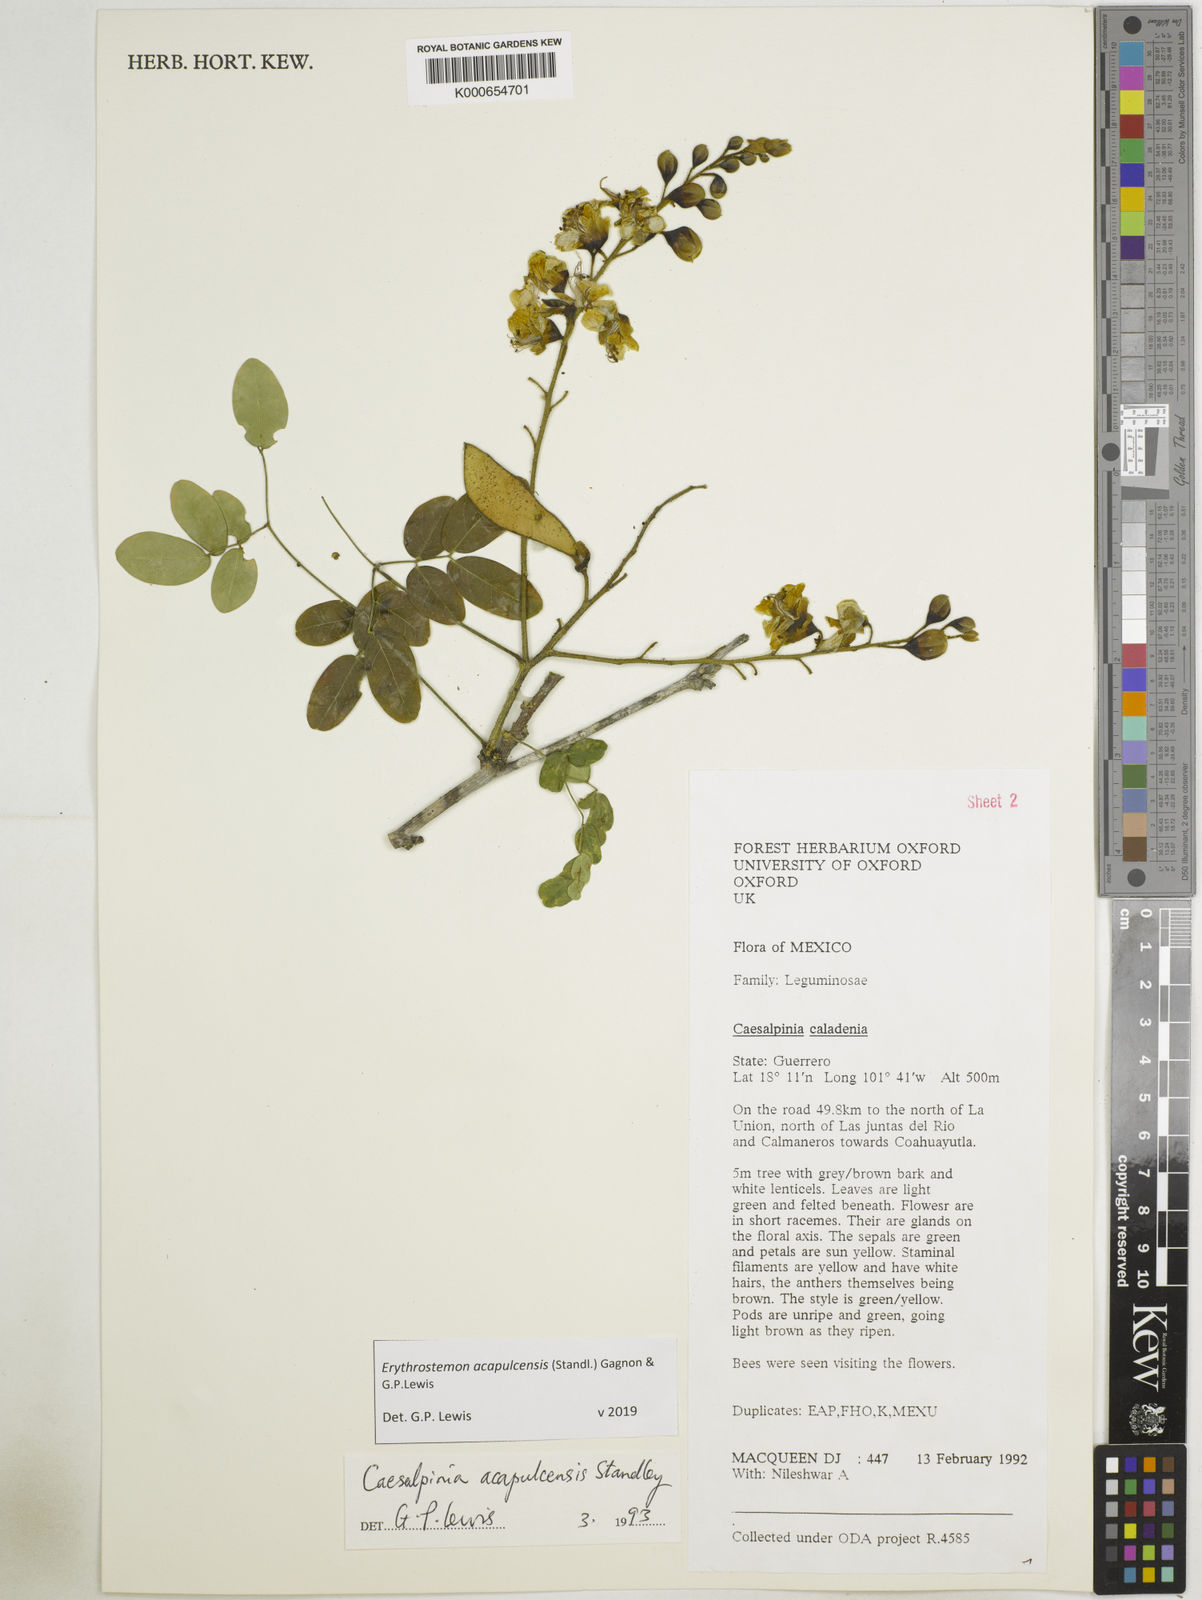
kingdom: Plantae
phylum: Tracheophyta
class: Magnoliopsida
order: Fabales
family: Fabaceae
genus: Erythrostemon
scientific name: Erythrostemon acapulcensis
